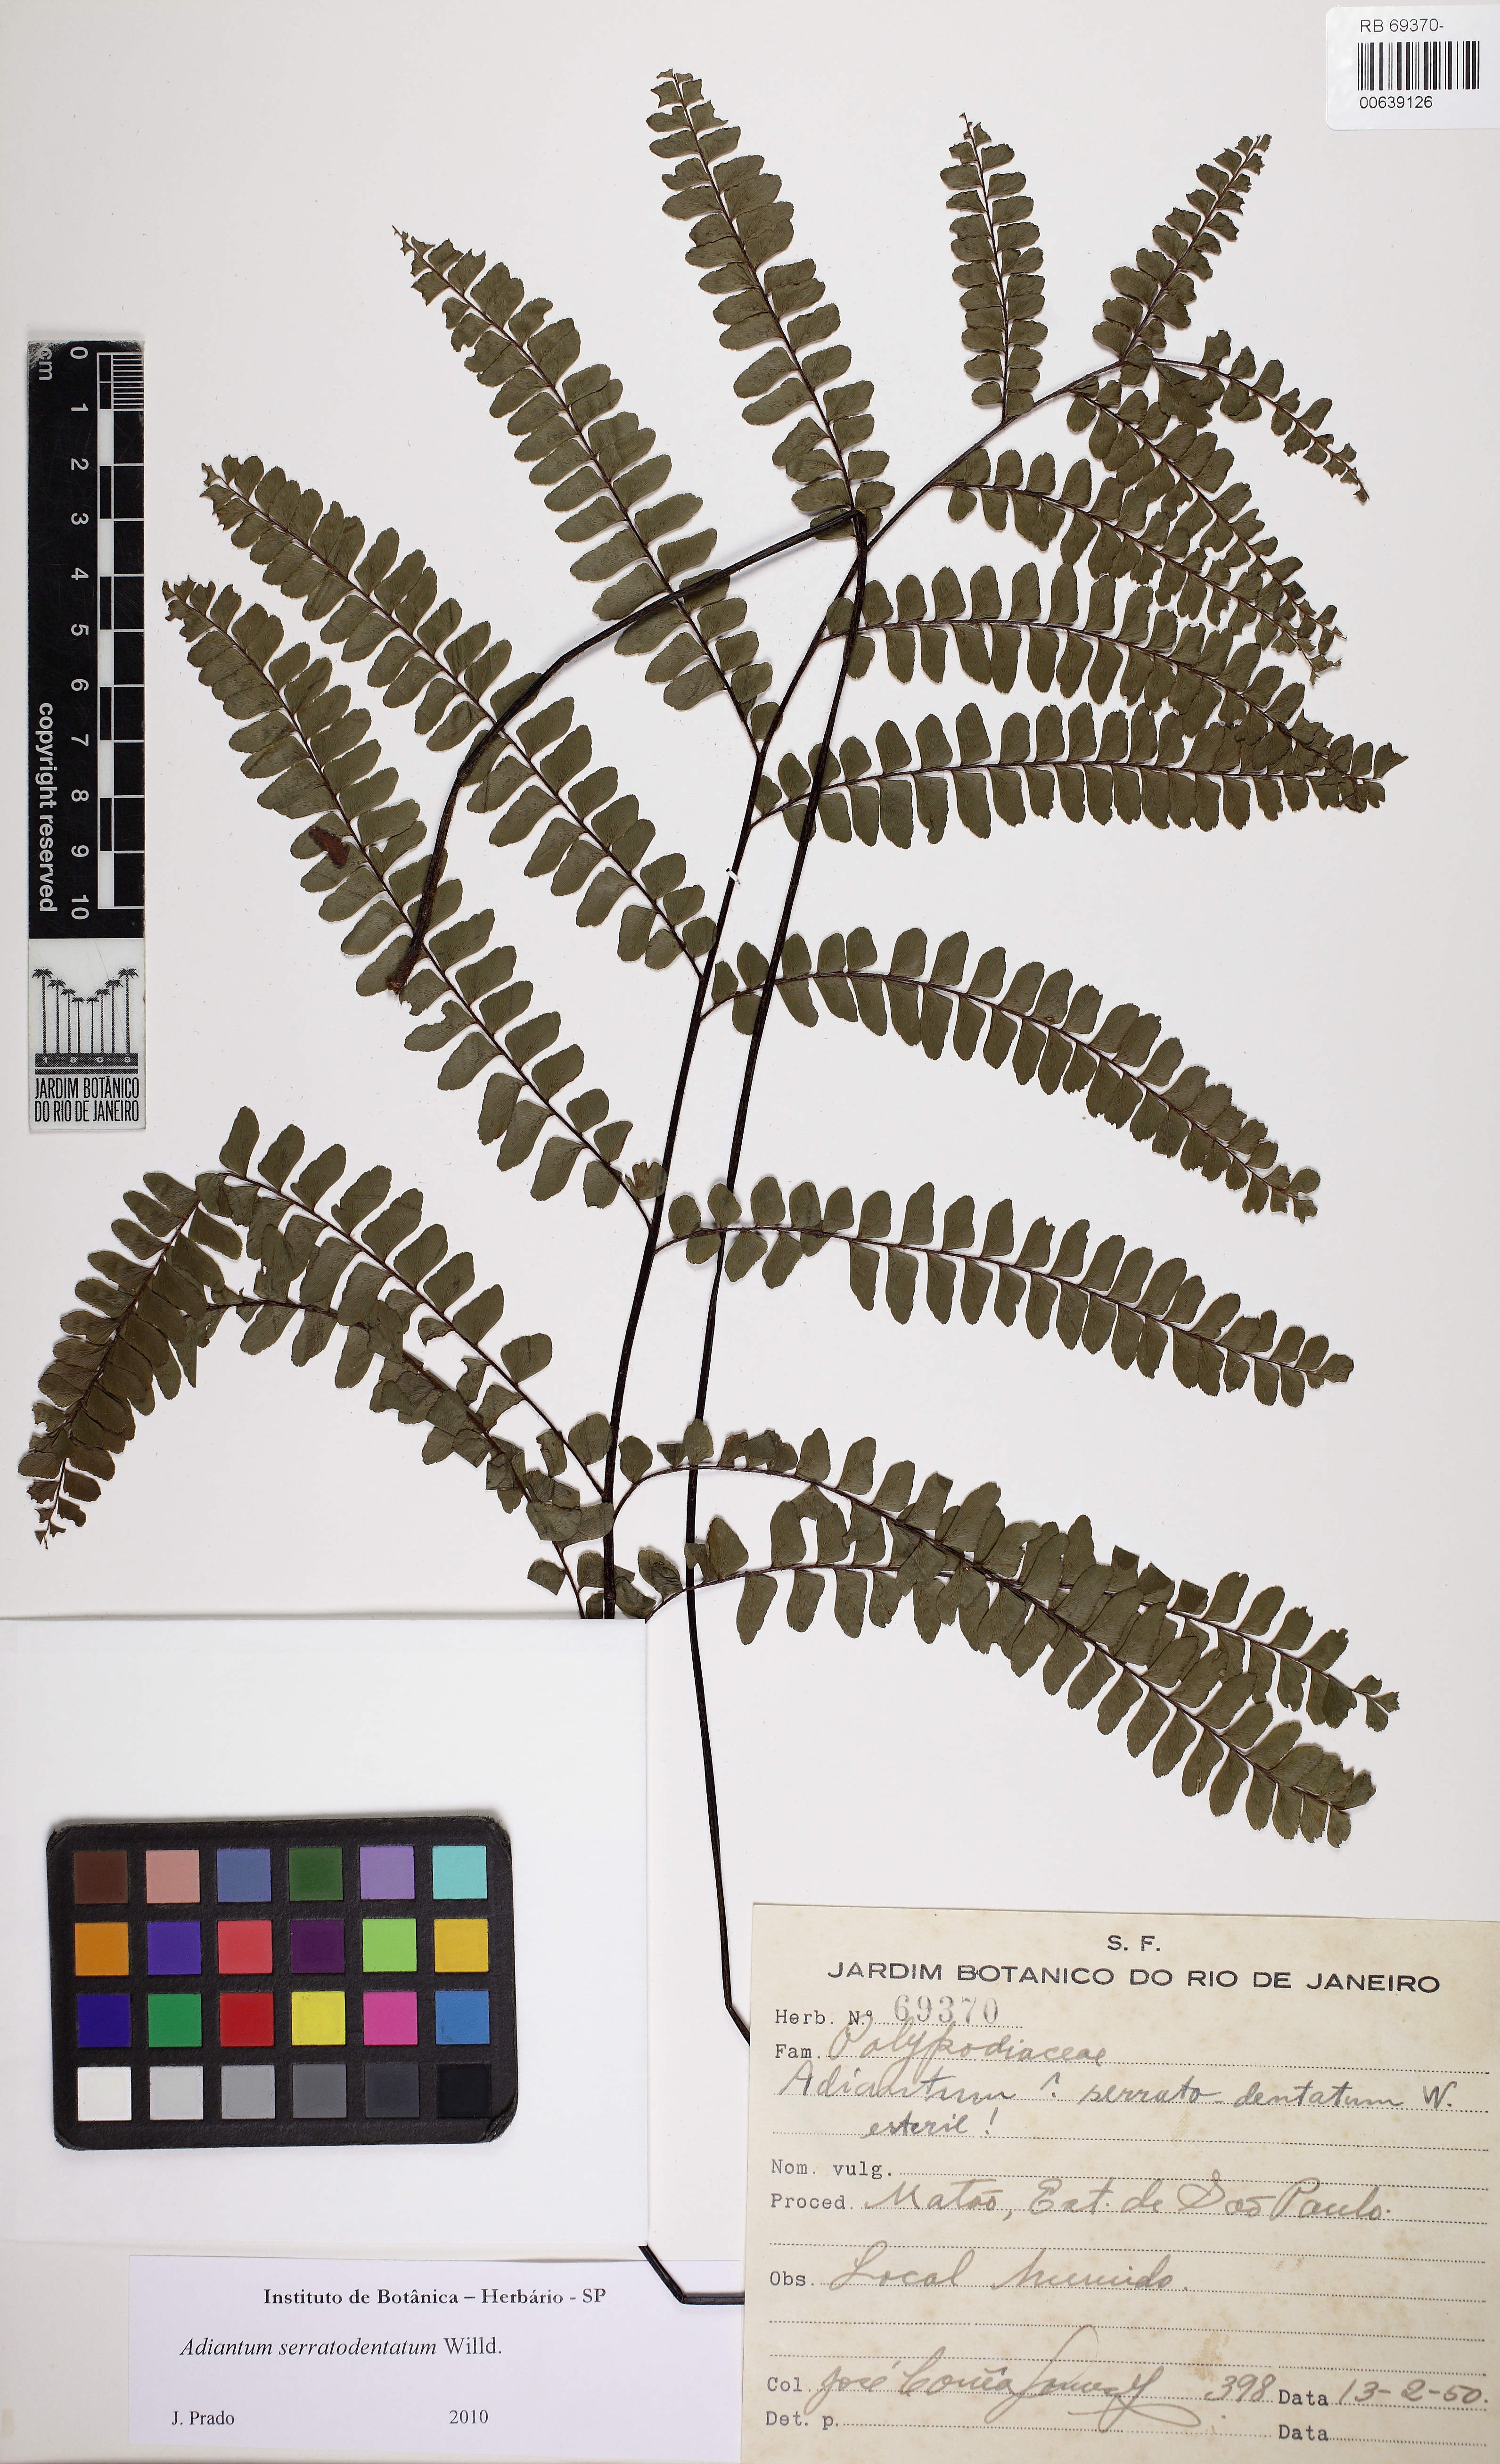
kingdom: Plantae
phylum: Tracheophyta
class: Polypodiopsida
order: Polypodiales
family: Pteridaceae
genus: Adiantum
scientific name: Adiantum serratodentatum
